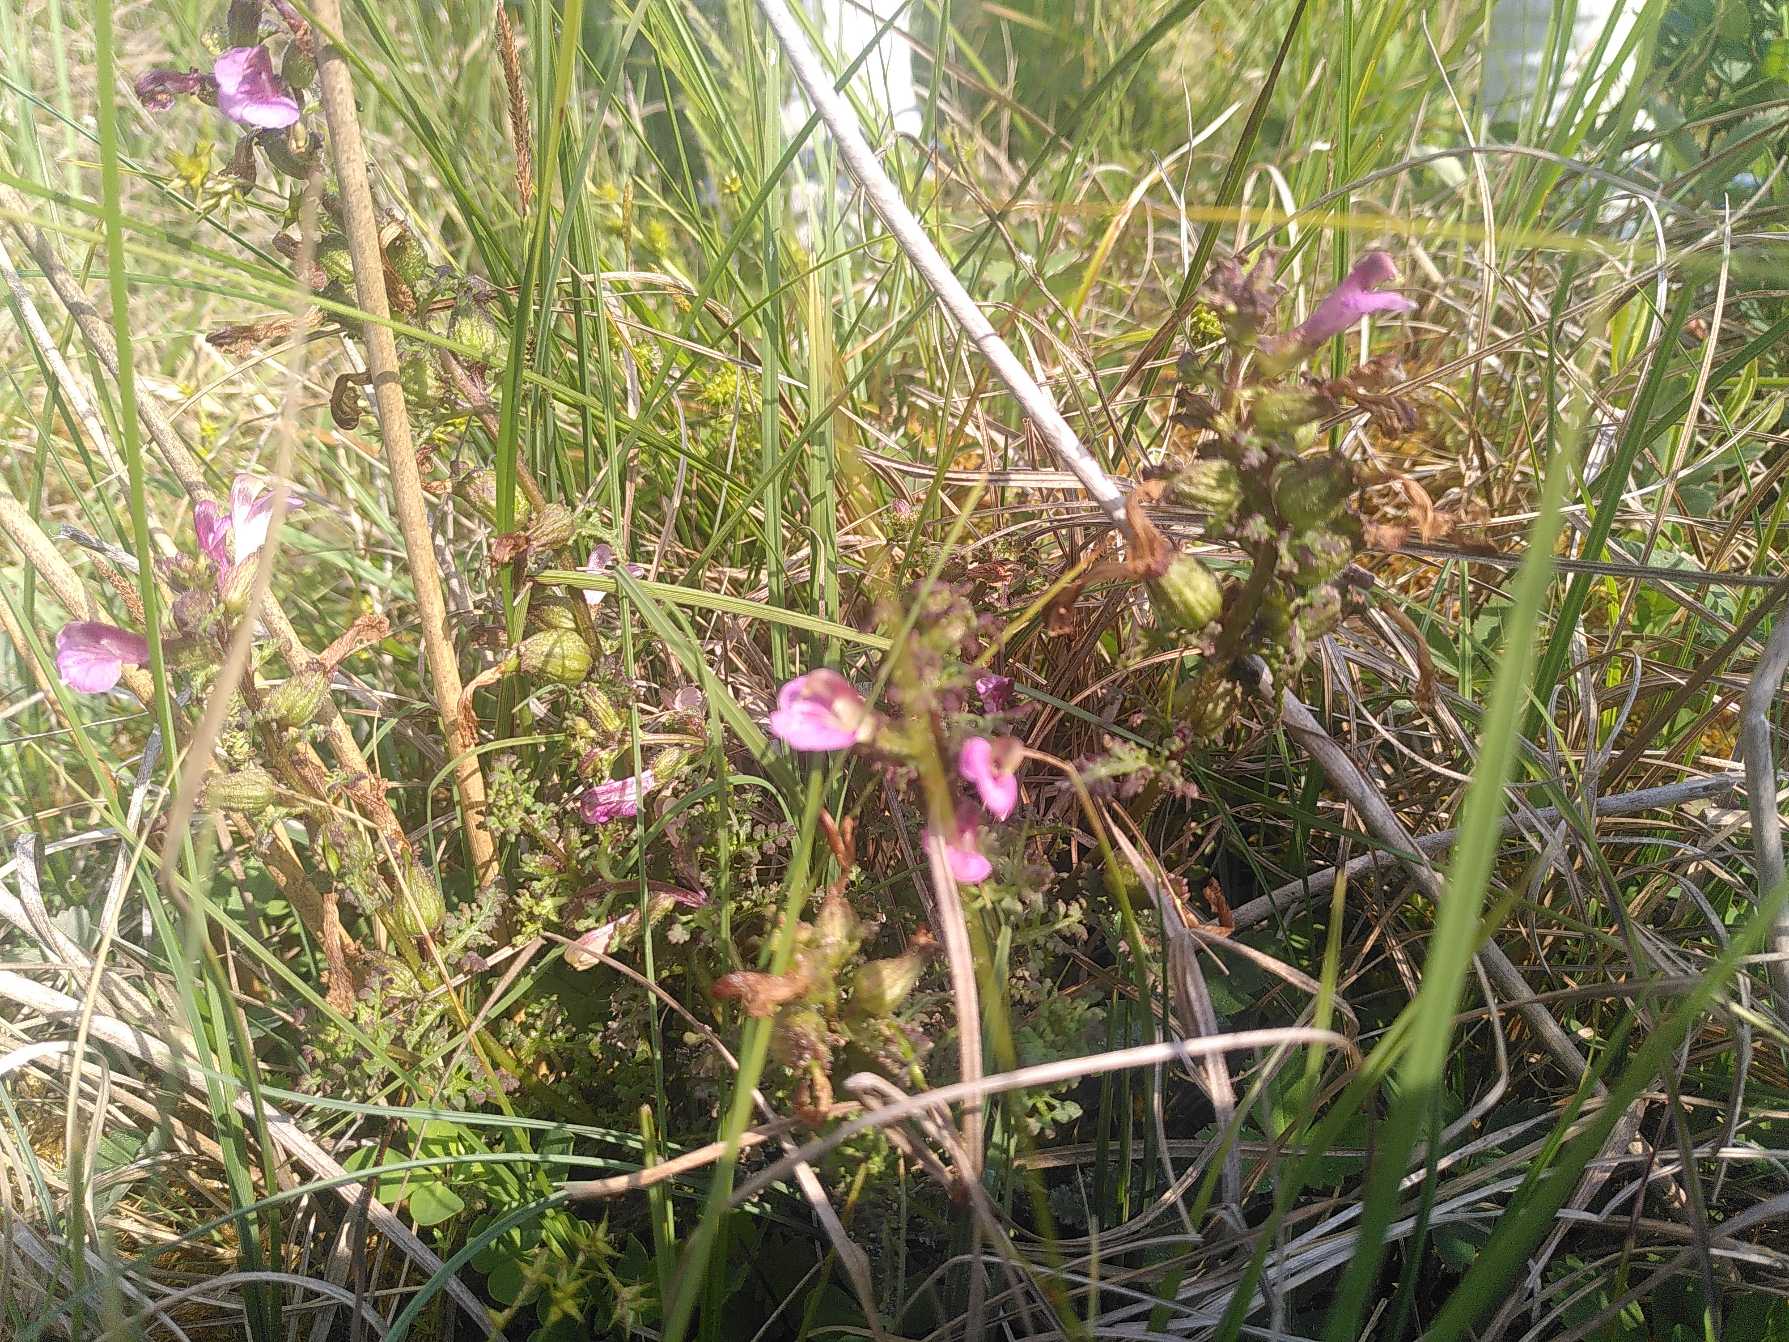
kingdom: Plantae
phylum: Tracheophyta
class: Magnoliopsida
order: Lamiales
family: Orobanchaceae
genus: Pedicularis
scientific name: Pedicularis palustris
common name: Eng-troldurt
